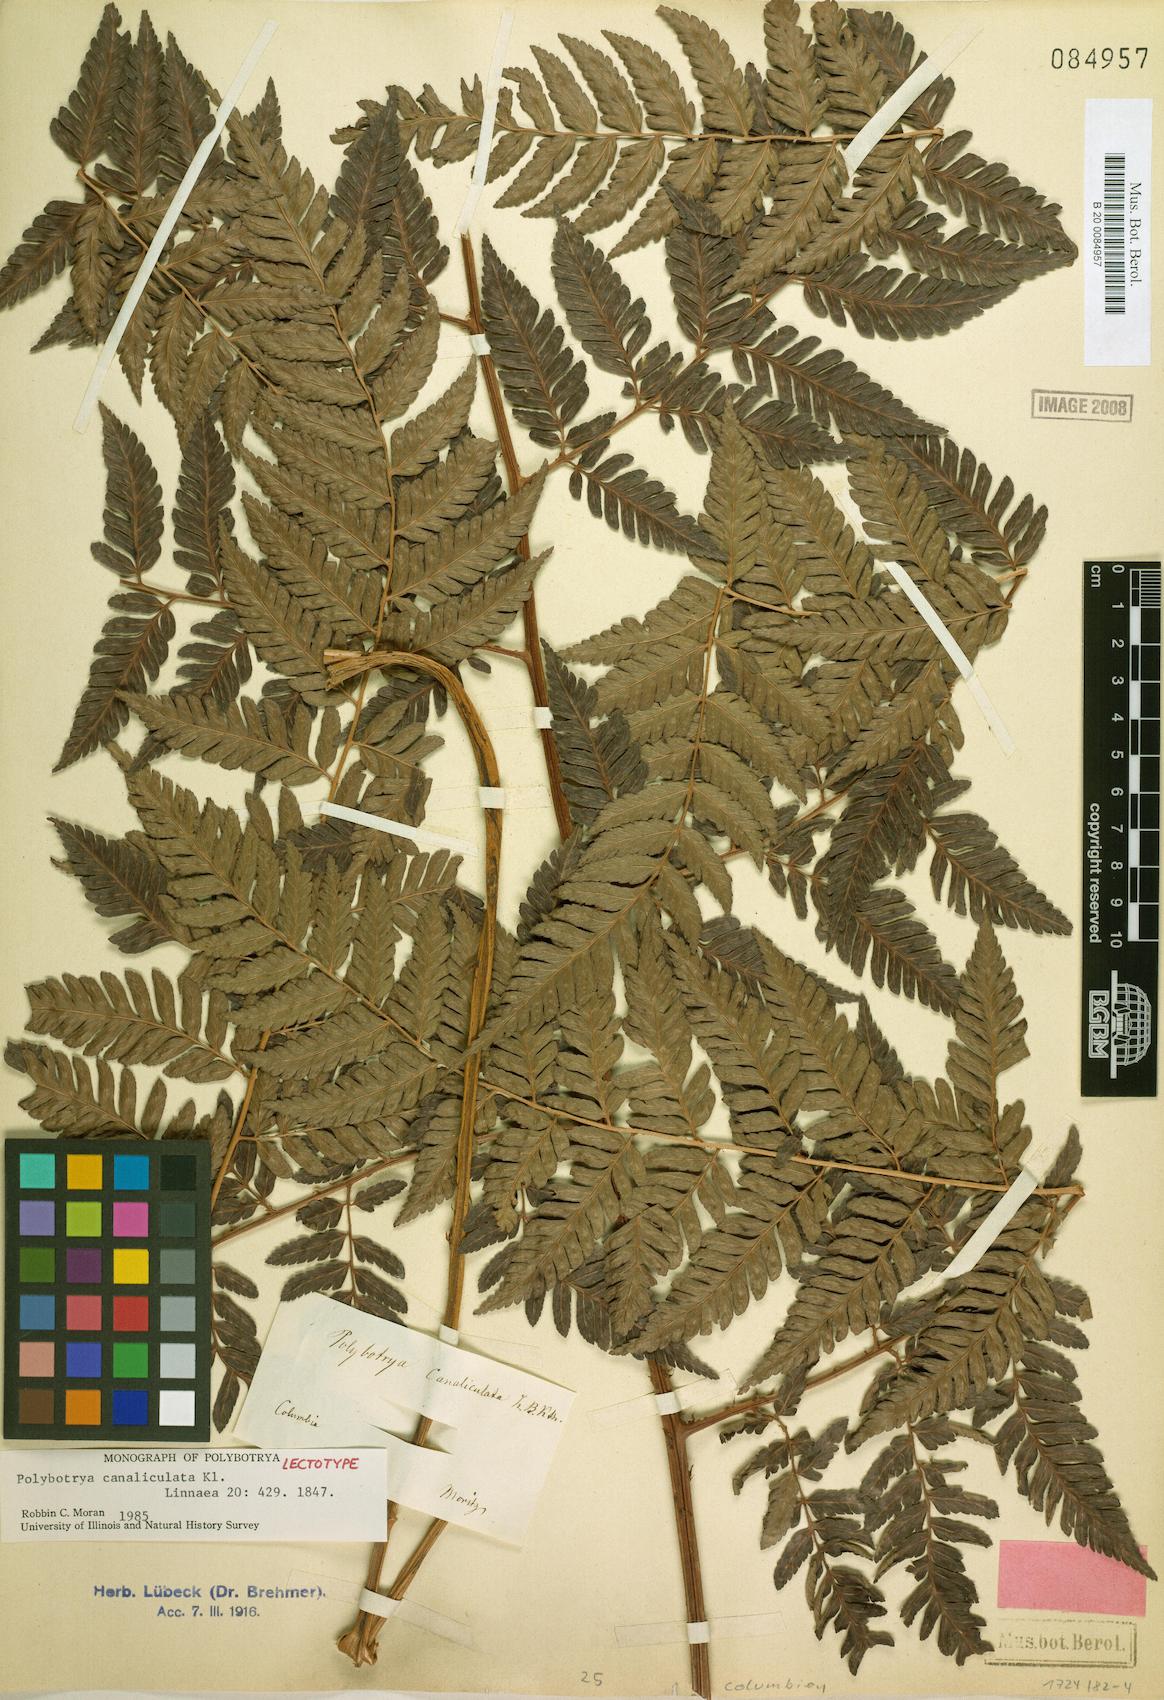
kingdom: Plantae
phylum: Tracheophyta
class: Polypodiopsida
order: Polypodiales
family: Dryopteridaceae
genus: Polybotrya
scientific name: Polybotrya canaliculata
